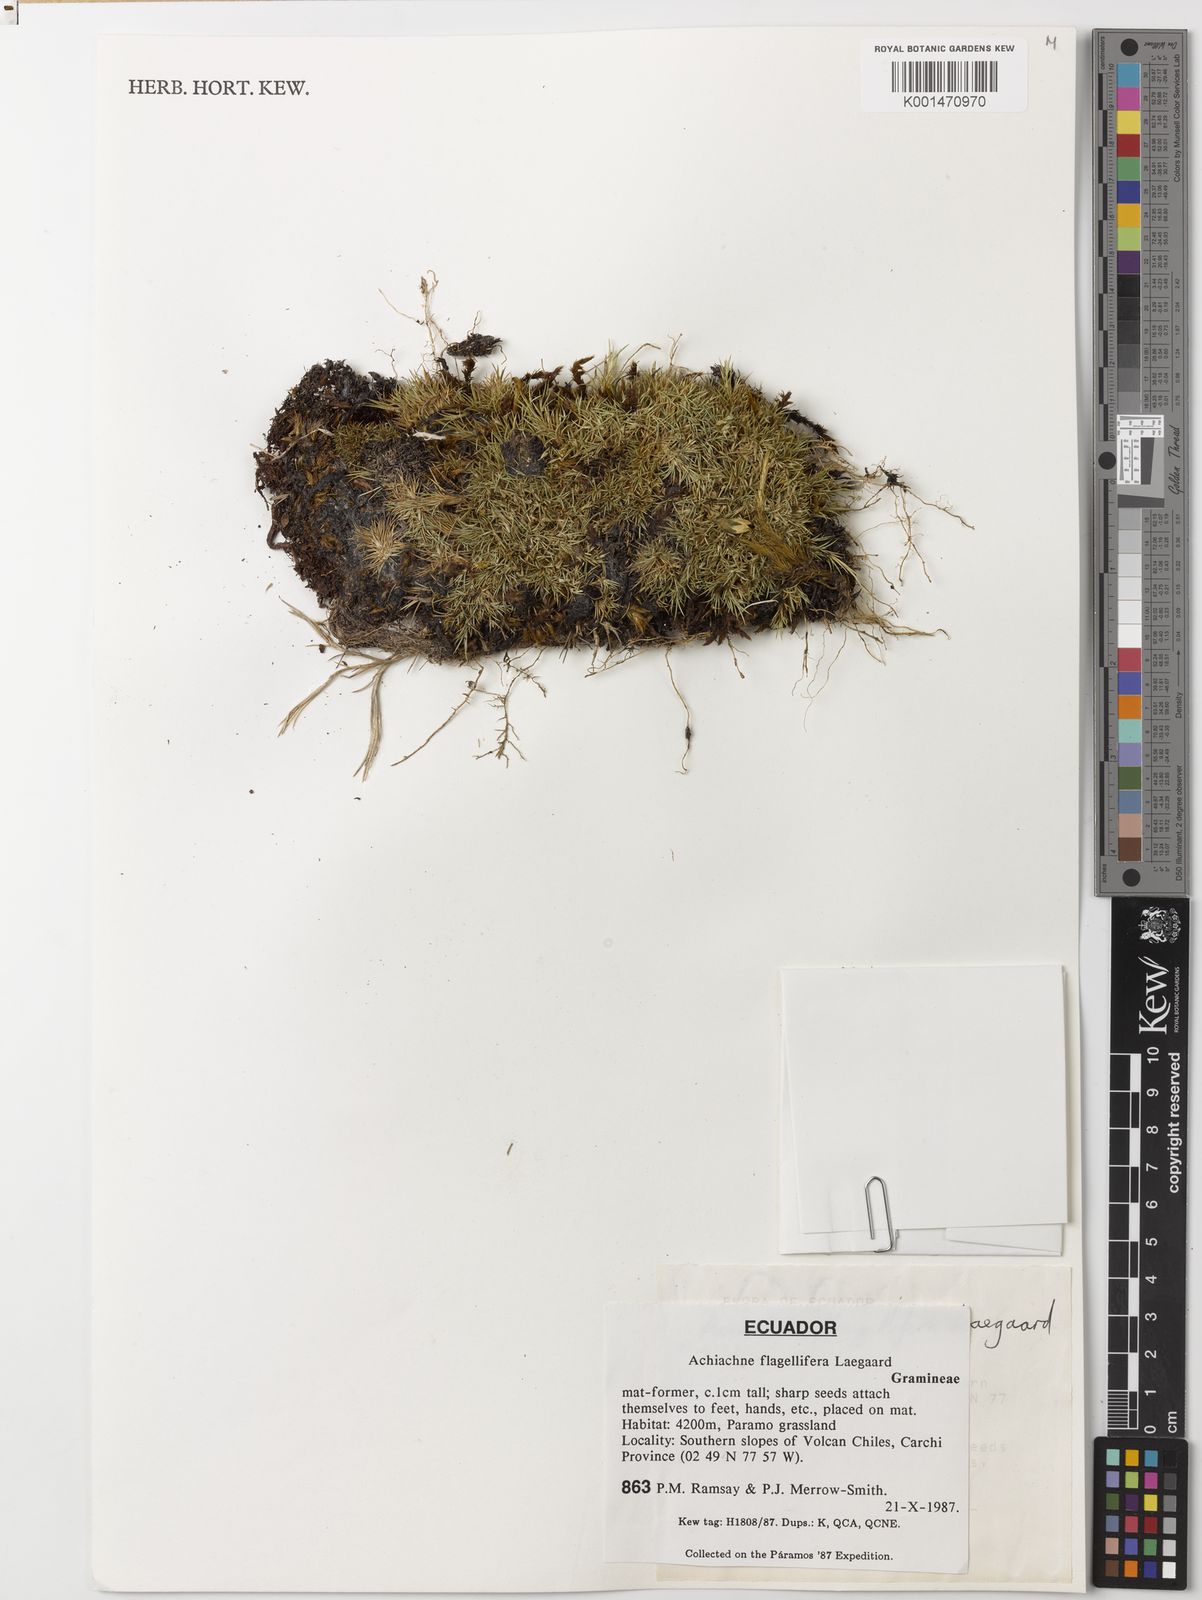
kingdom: Plantae
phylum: Tracheophyta
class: Liliopsida
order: Poales
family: Poaceae
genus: Aciachne
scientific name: Aciachne flagellifera
